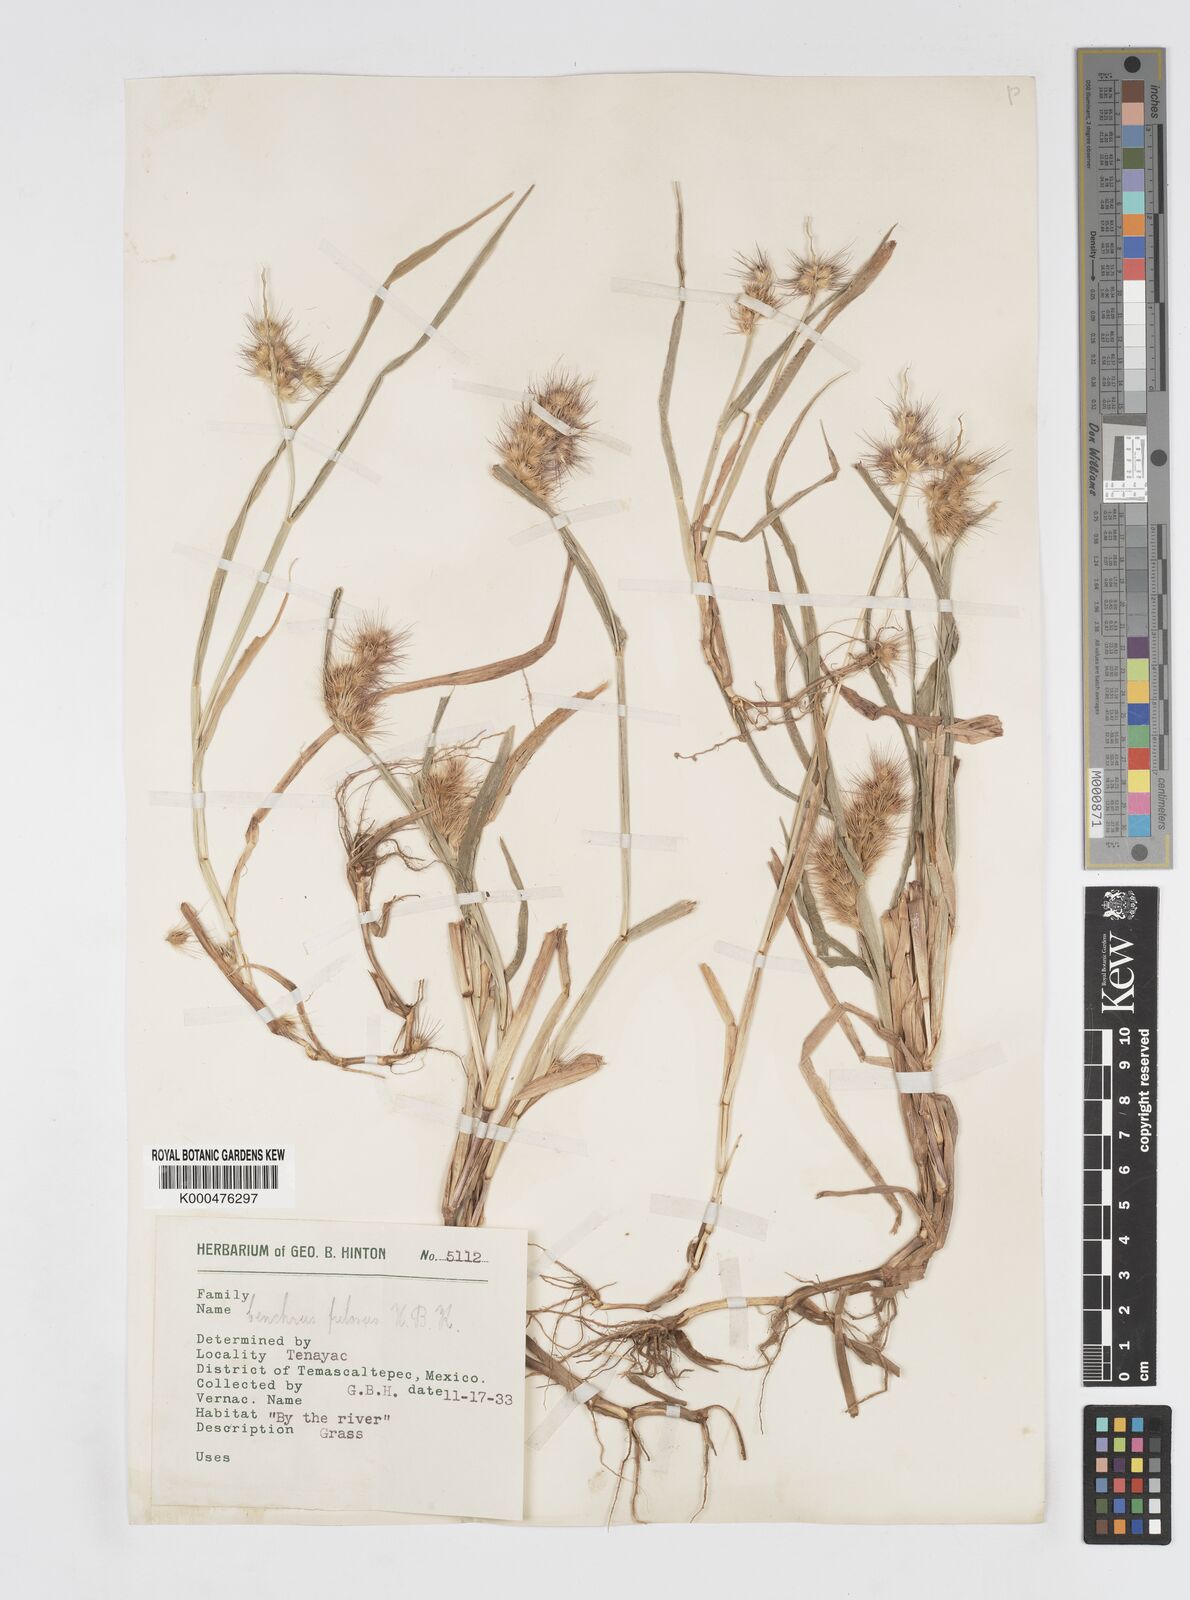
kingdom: Plantae
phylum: Tracheophyta
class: Liliopsida
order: Poales
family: Poaceae
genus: Cenchrus
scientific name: Cenchrus pilosus
